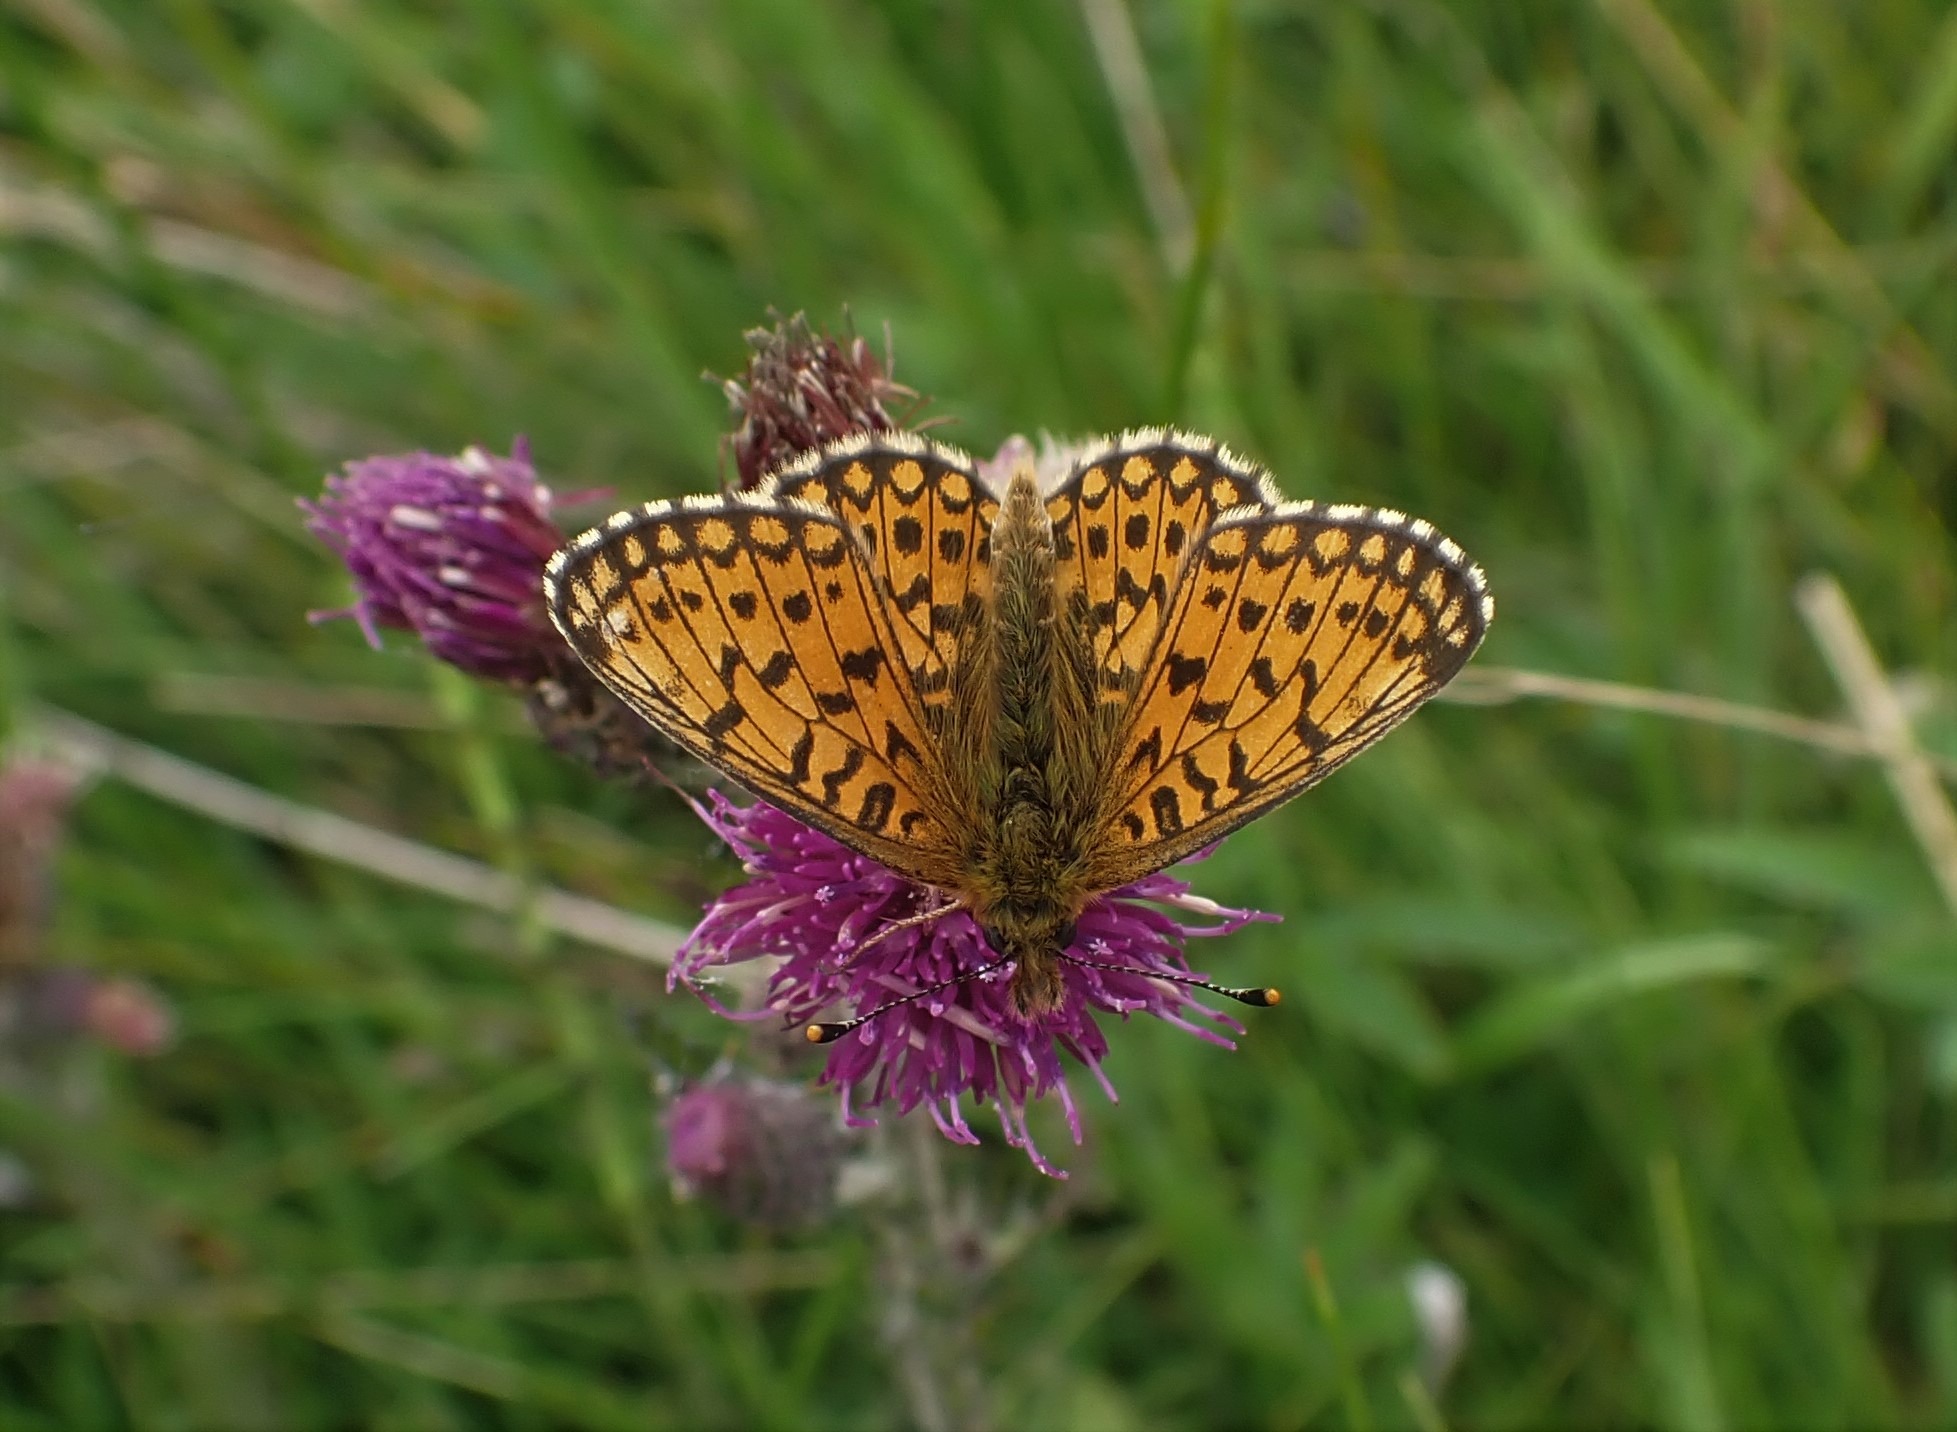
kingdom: Animalia
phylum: Arthropoda
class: Insecta
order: Lepidoptera
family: Nymphalidae
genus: Boloria
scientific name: Boloria selene
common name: Brunlig perlemorsommerfugl
